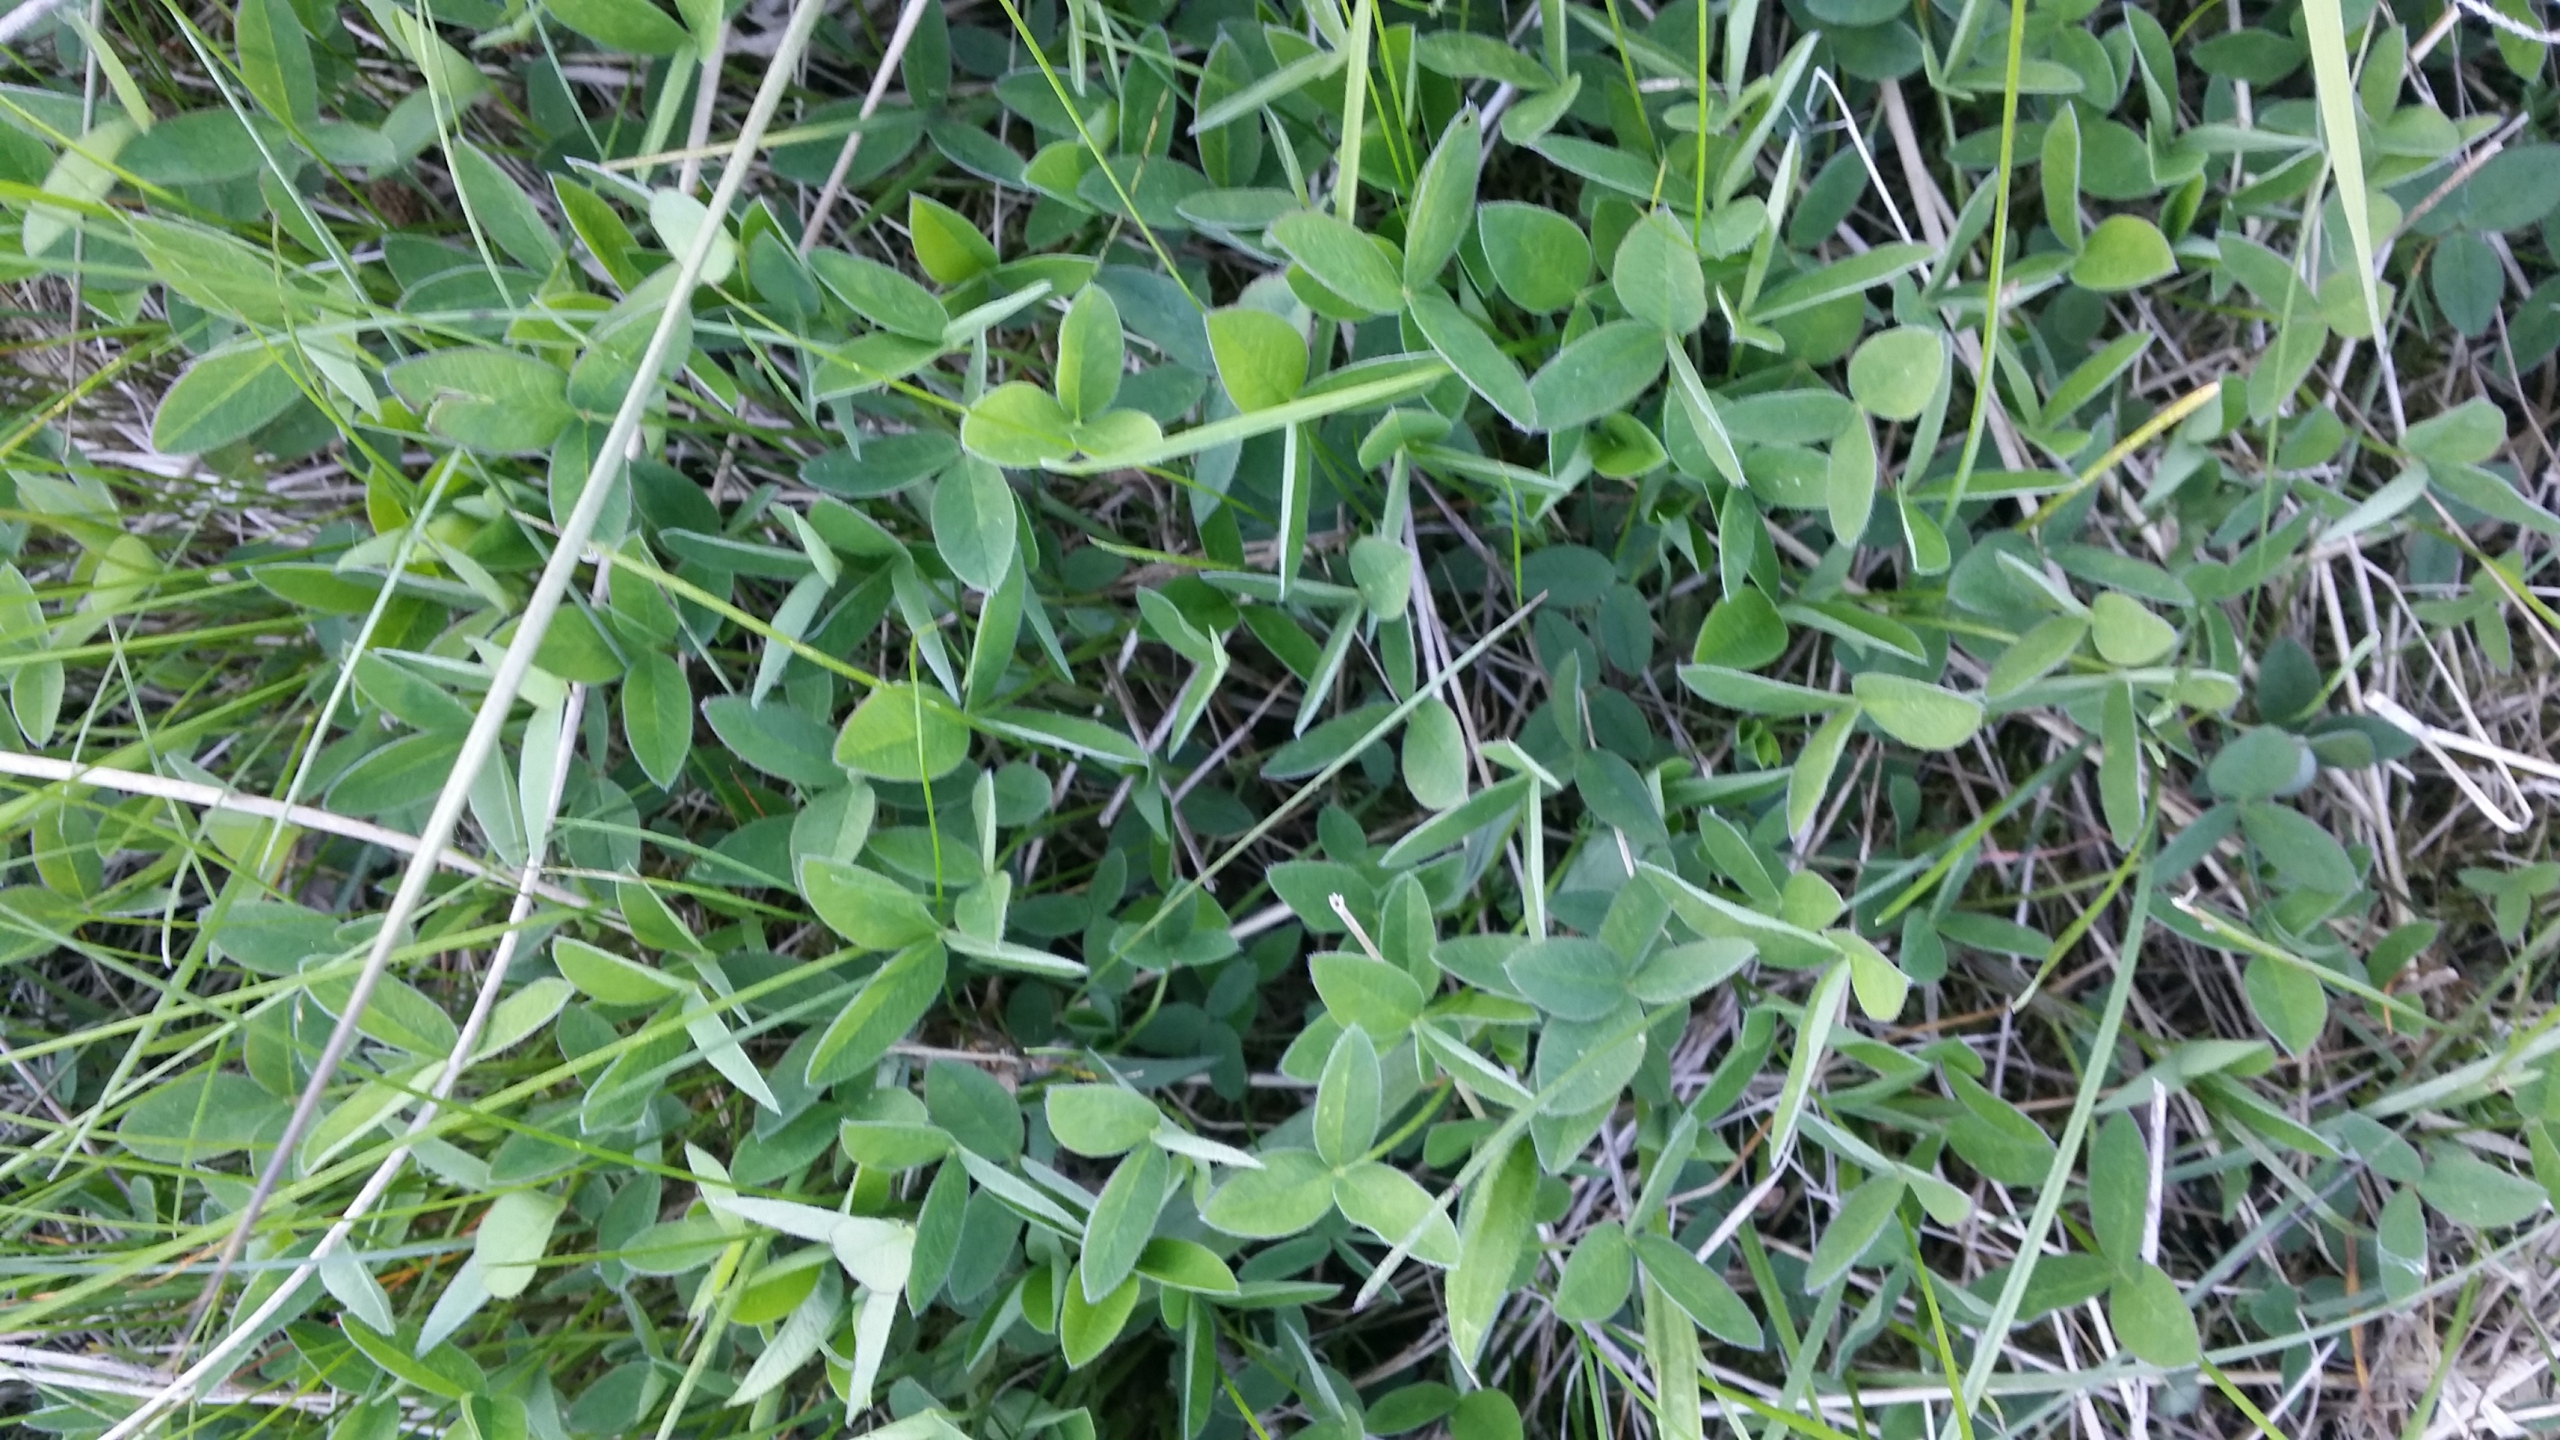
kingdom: Plantae
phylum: Tracheophyta
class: Magnoliopsida
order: Fabales
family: Fabaceae
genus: Trifolium
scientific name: Trifolium medium
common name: Bugtet kløver
